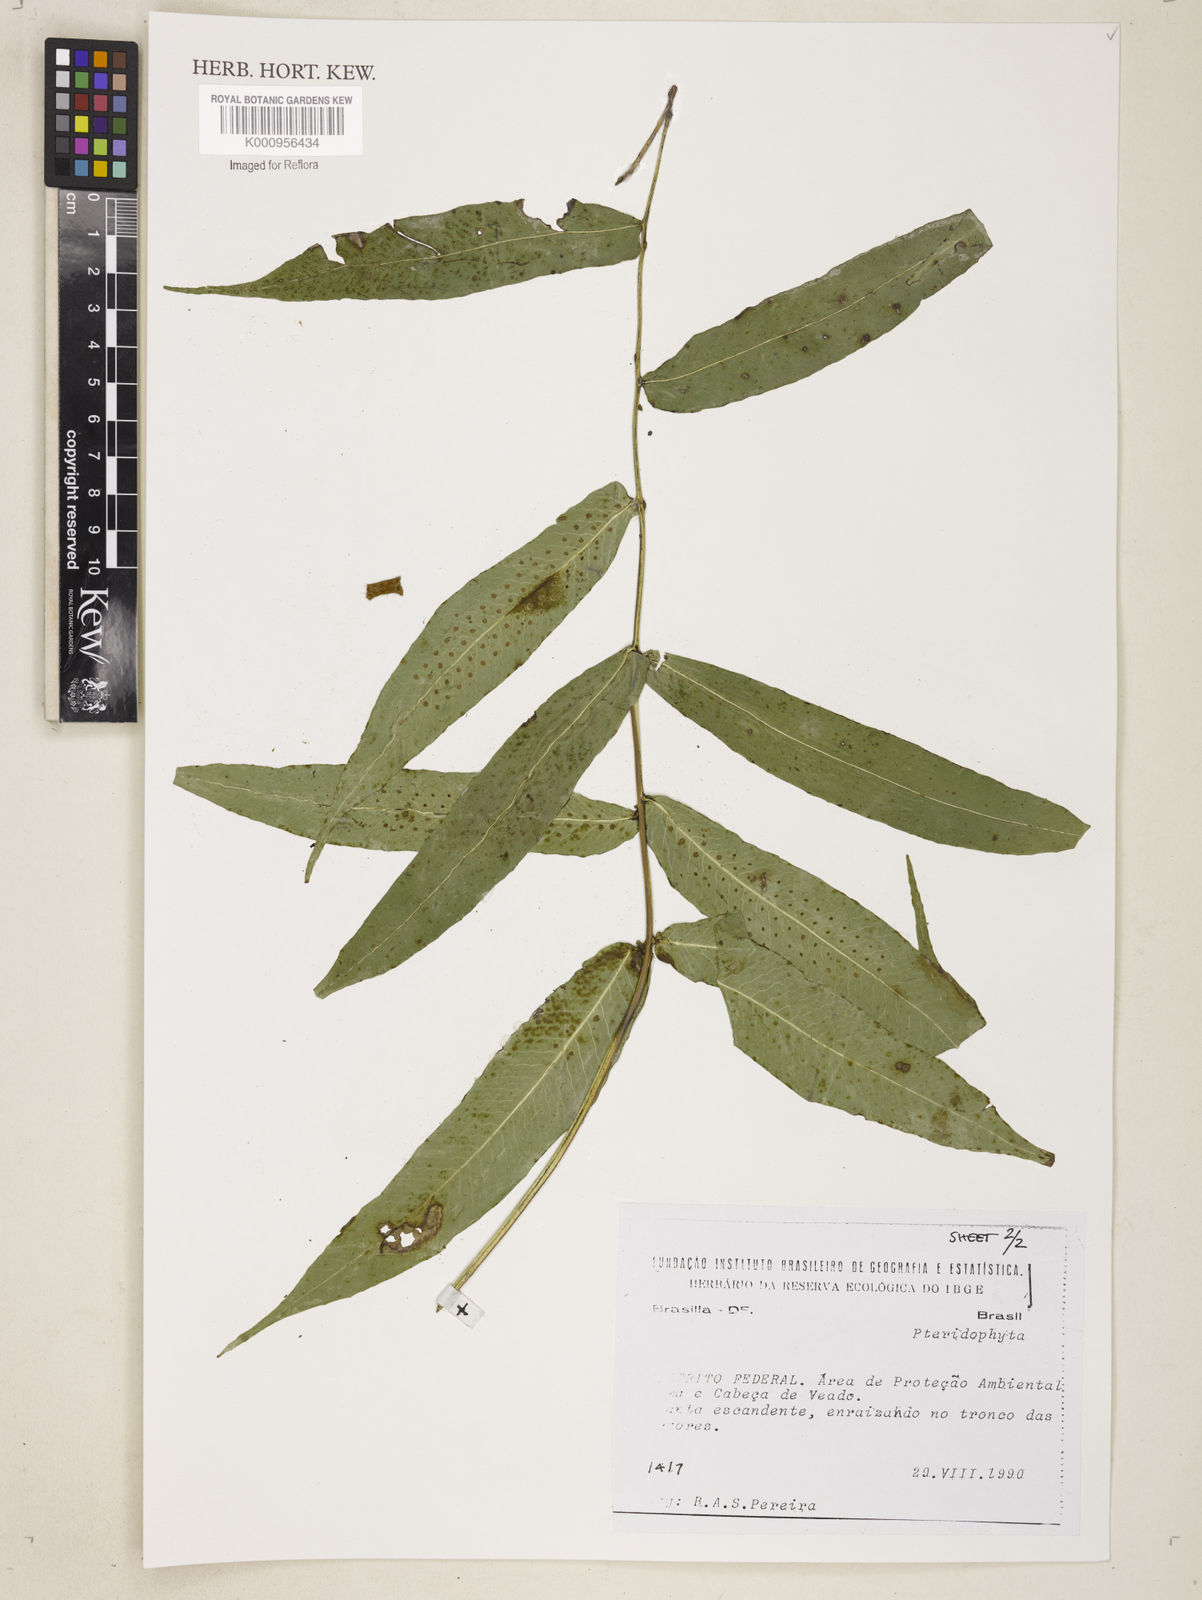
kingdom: Plantae
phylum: Tracheophyta
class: Polypodiopsida
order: Polypodiales
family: Polypodiaceae
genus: Polypodium
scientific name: Polypodium
